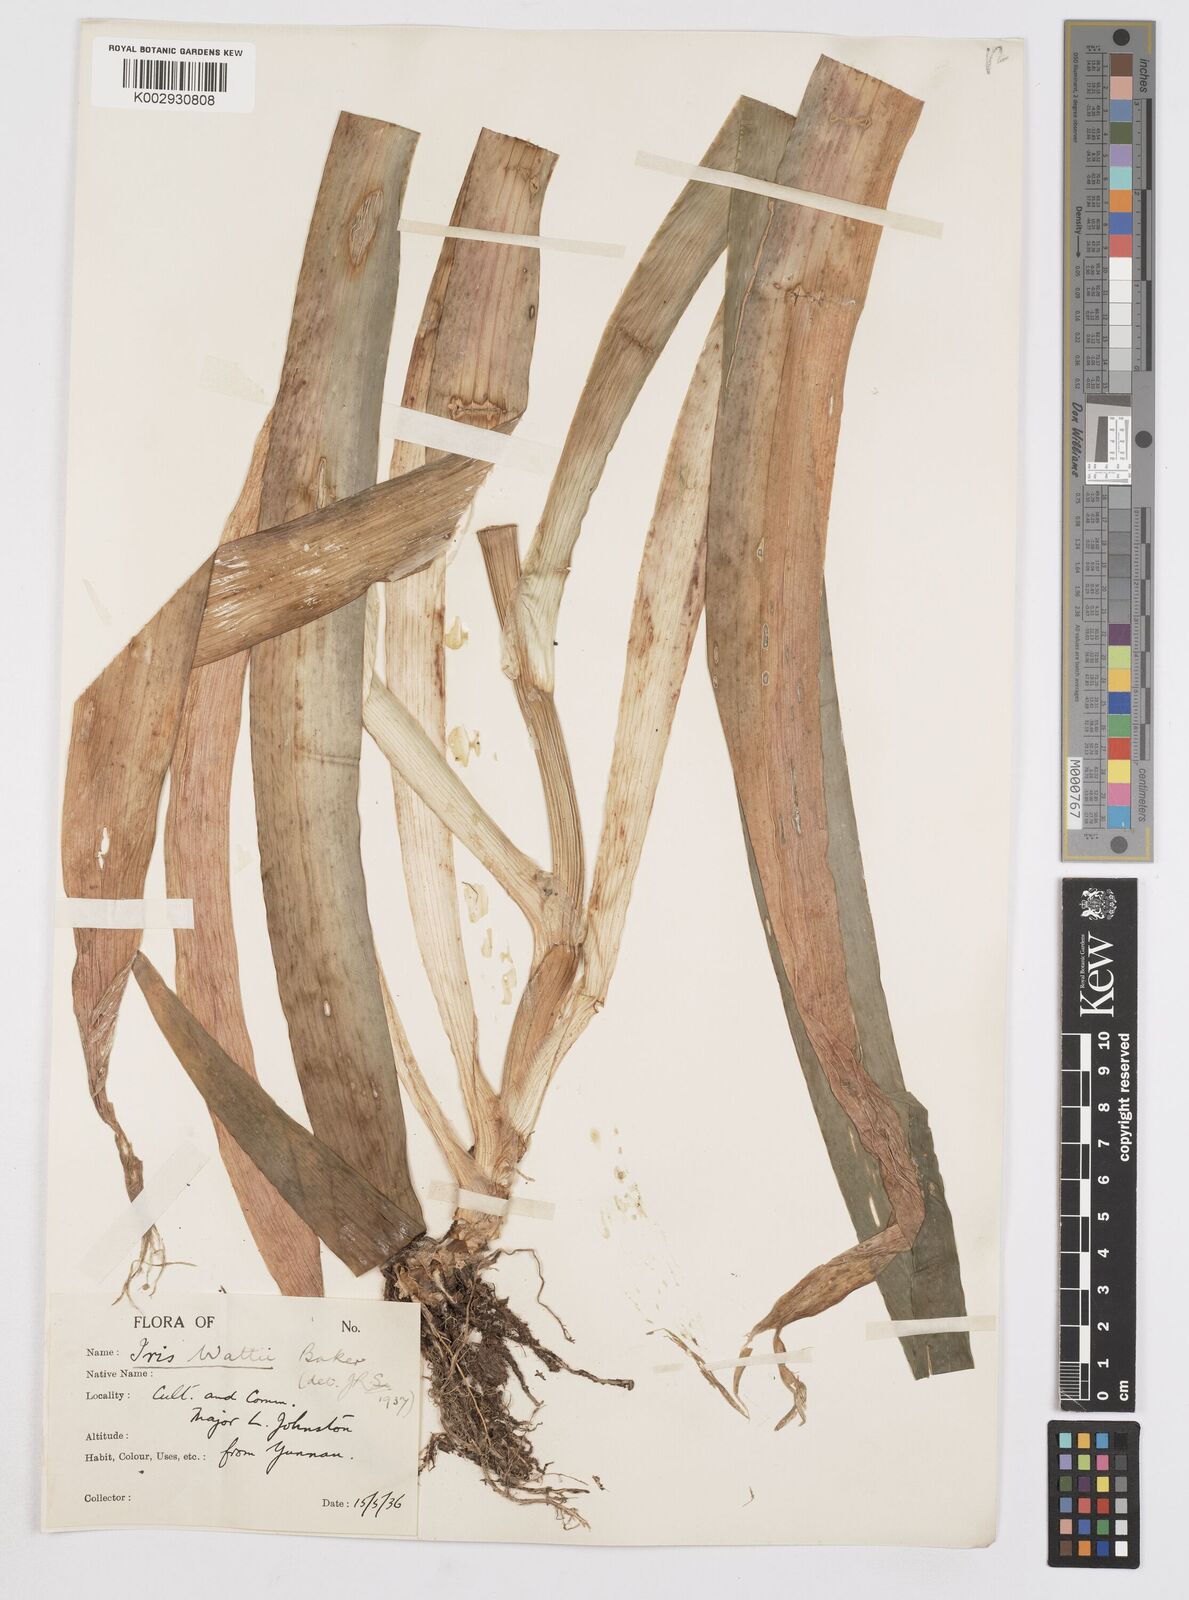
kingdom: Plantae
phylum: Tracheophyta
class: Liliopsida
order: Asparagales
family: Iridaceae
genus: Iris
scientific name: Iris wattii
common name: Fan-shape iris
